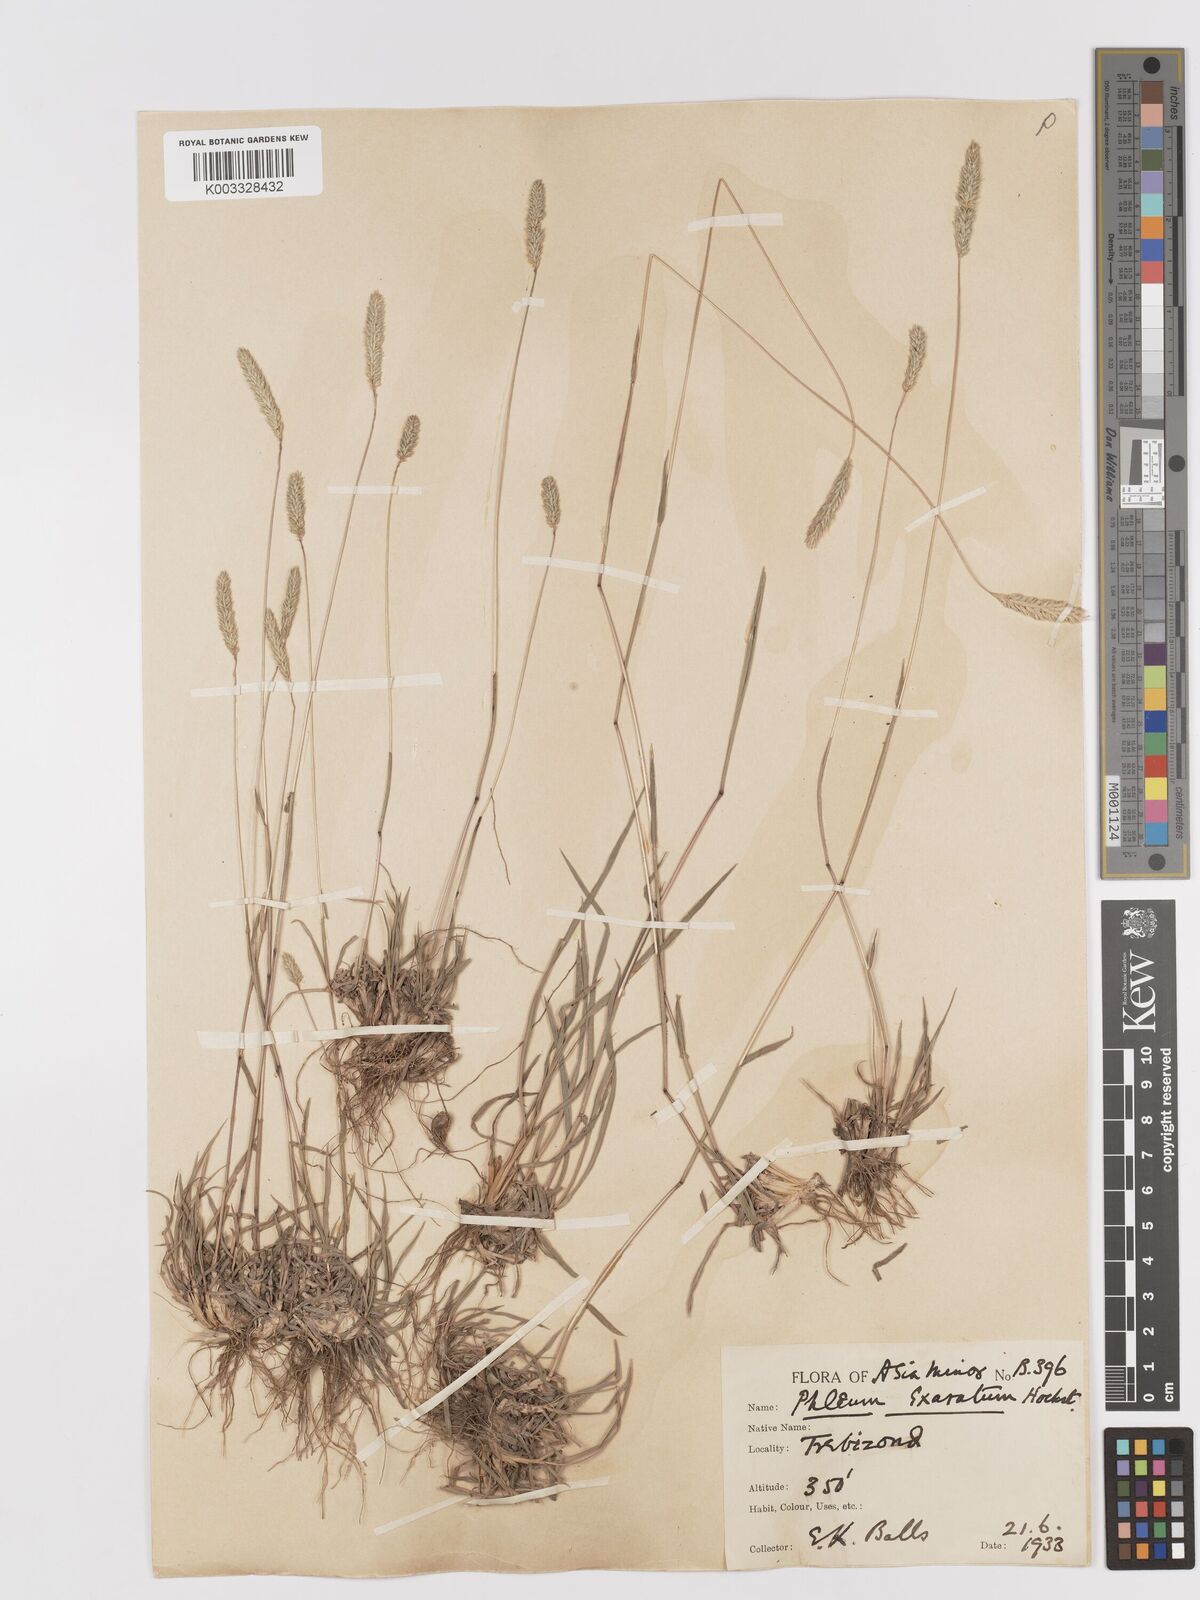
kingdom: Plantae
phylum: Tracheophyta
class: Liliopsida
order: Poales
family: Poaceae
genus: Phleum
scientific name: Phleum phleoides
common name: Purple-stem cat's-tail
